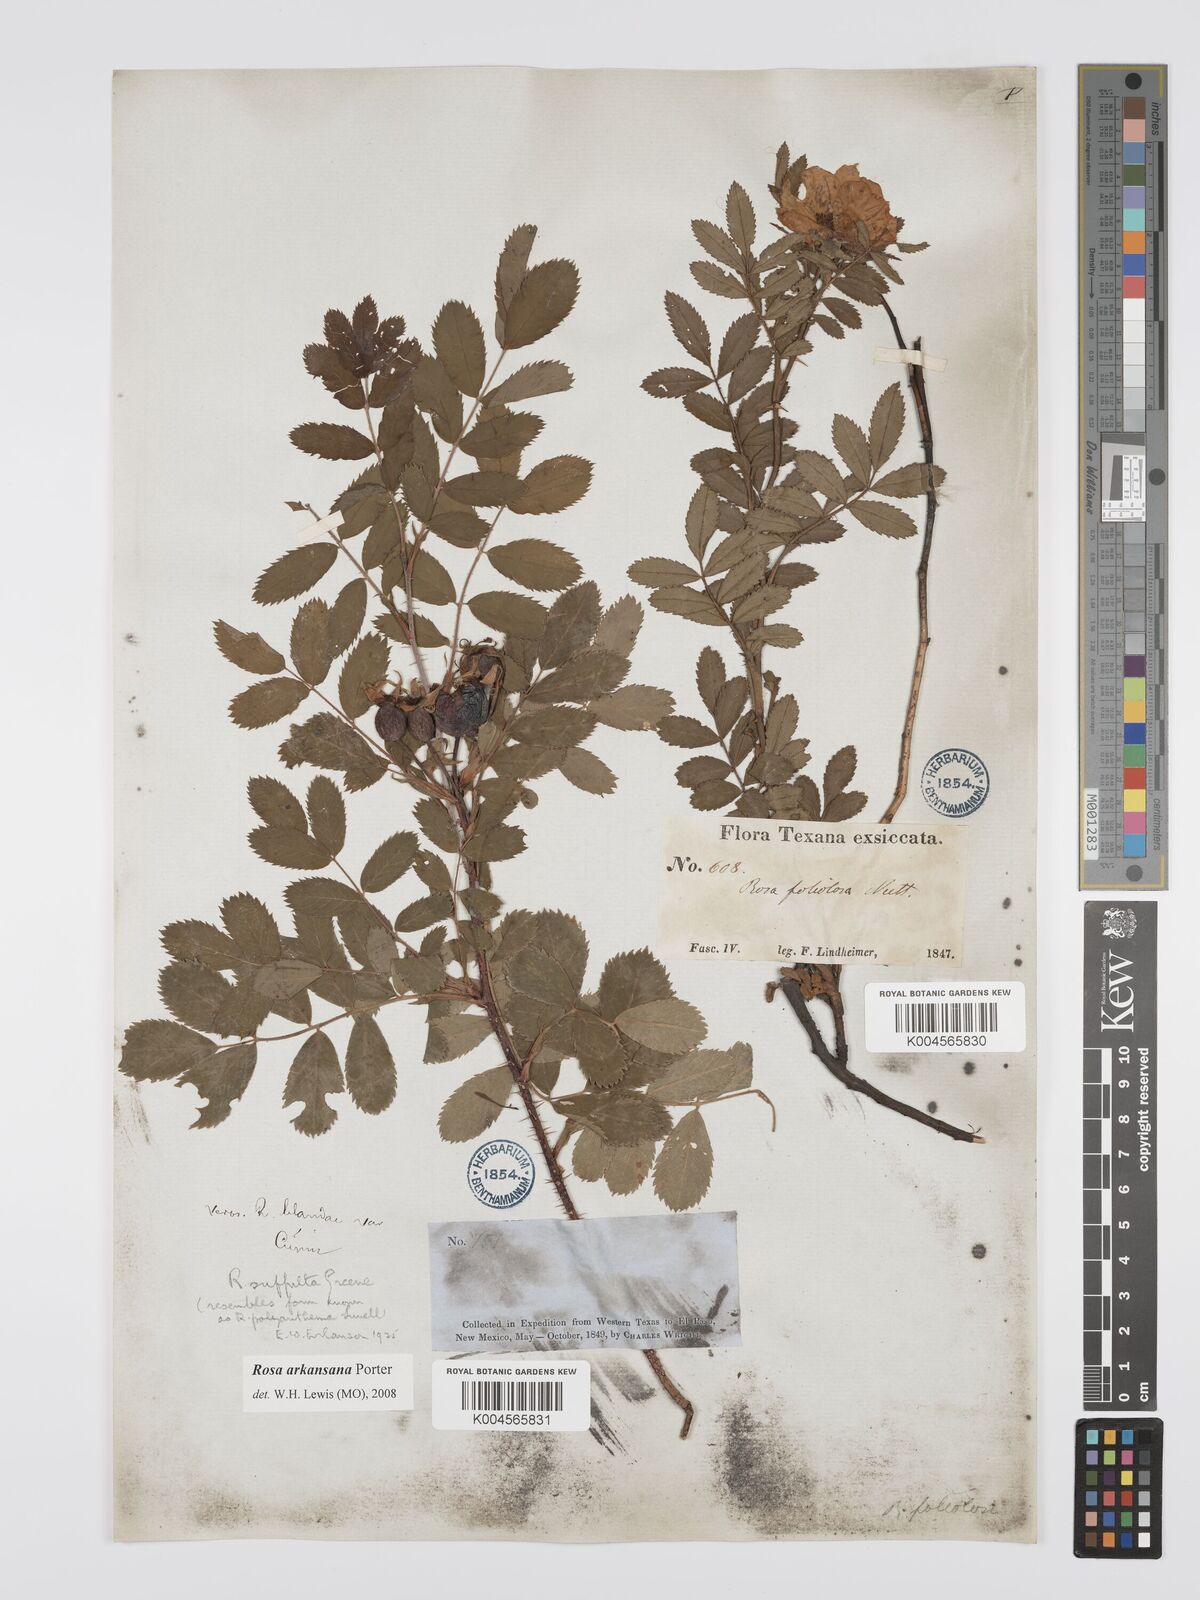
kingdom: Plantae
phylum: Tracheophyta
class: Magnoliopsida
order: Rosales
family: Rosaceae
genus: Rosa
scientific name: Rosa foliolosa
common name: White prairie rose
